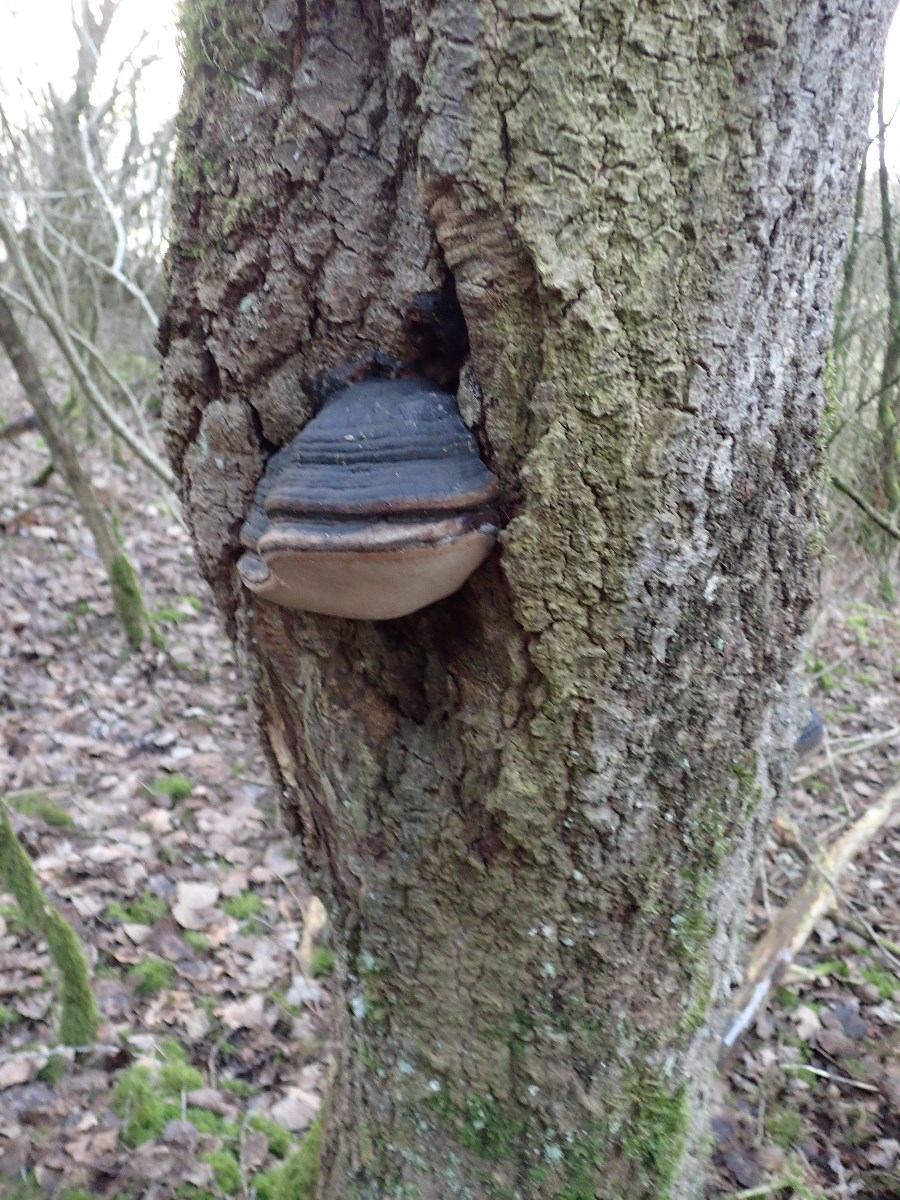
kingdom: Fungi
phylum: Basidiomycota
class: Agaricomycetes
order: Hymenochaetales
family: Hymenochaetaceae
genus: Phellinus
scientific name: Phellinus igniarius
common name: almindelig ildporesvamp
